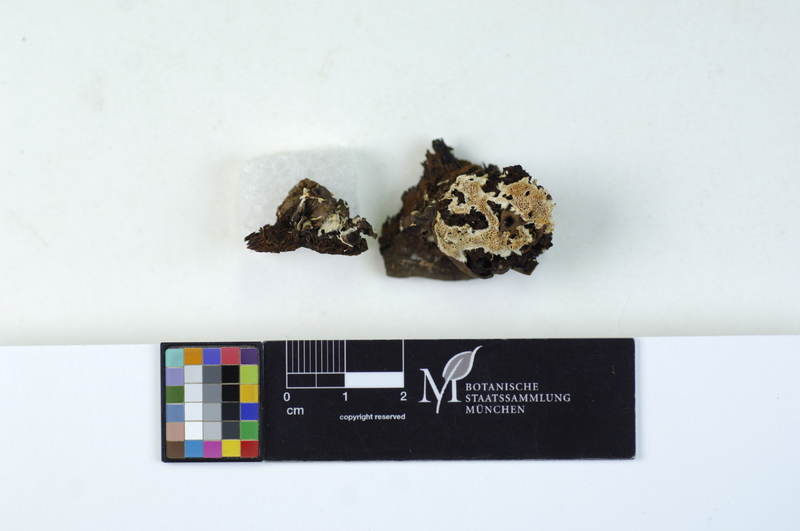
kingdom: Fungi
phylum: Basidiomycota
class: Agaricomycetes
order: Polyporales
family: Polyporaceae
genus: Ganoderma
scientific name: Ganoderma applanatum
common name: Artist's bracket
